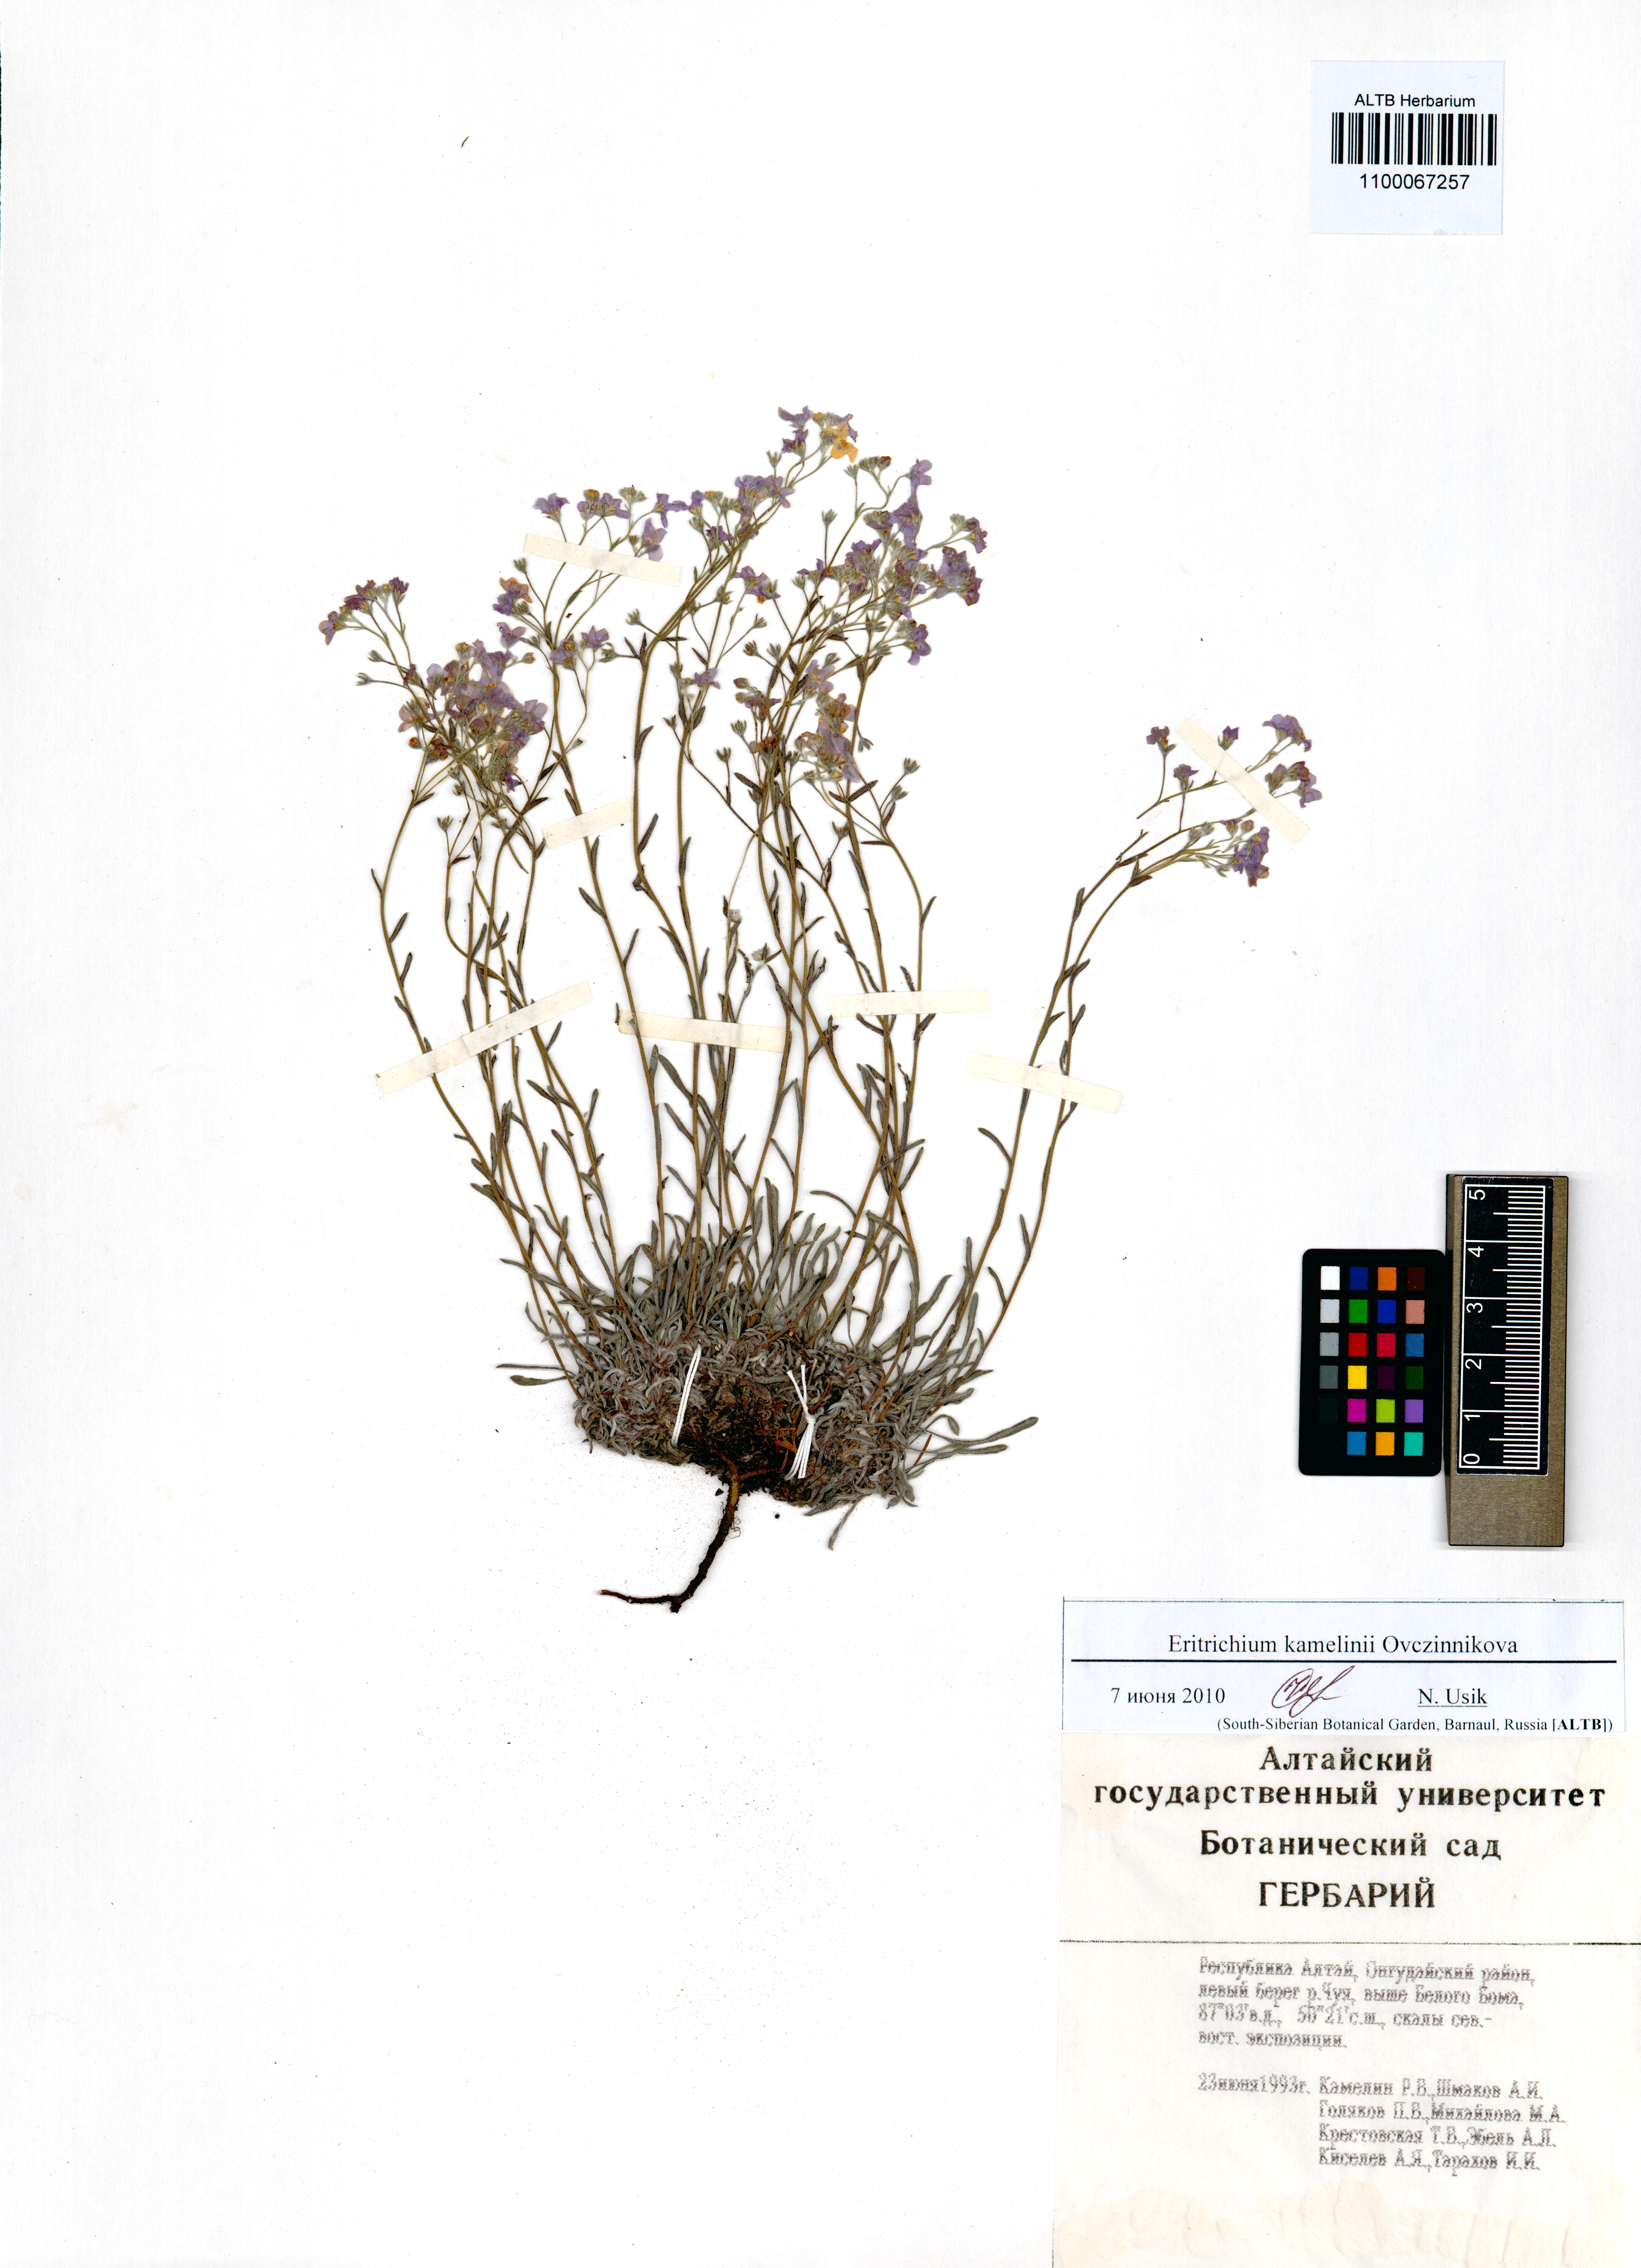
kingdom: Plantae
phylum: Tracheophyta
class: Magnoliopsida
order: Boraginales
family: Boraginaceae
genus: Eritrichium
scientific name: Eritrichium kamelinii
